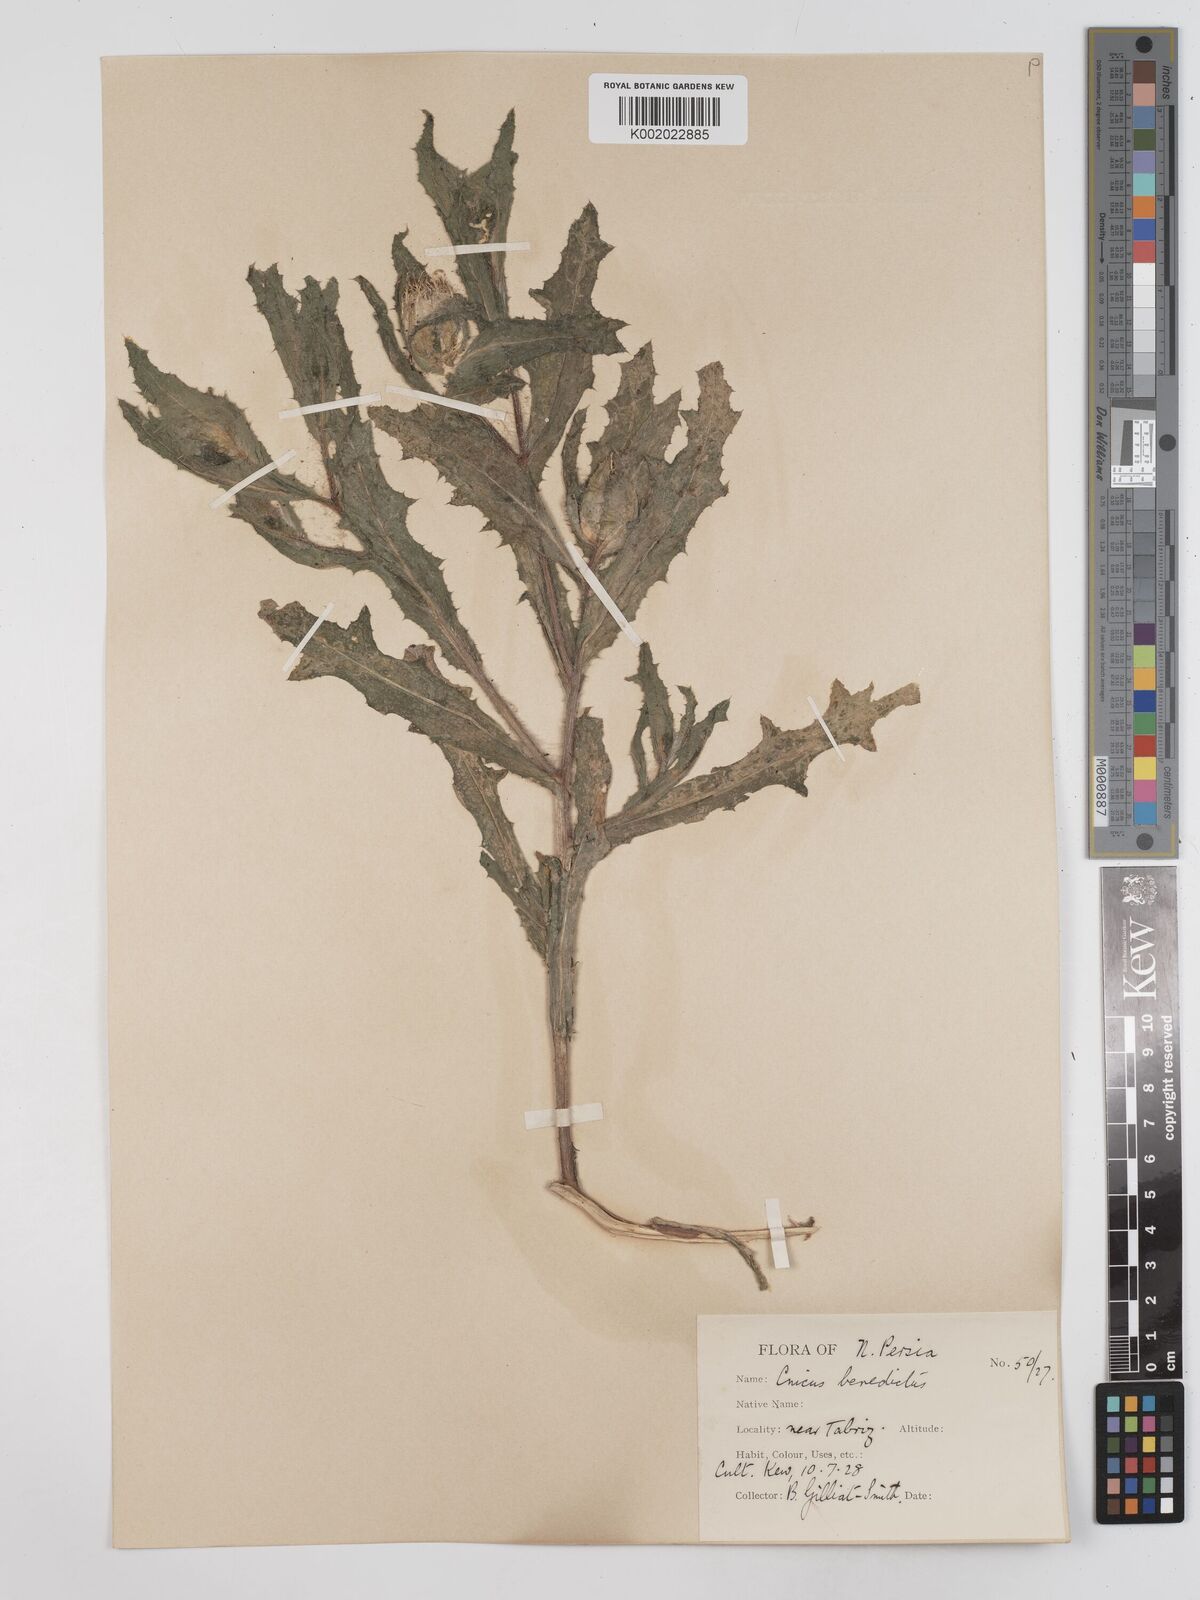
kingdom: Plantae
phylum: Tracheophyta
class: Magnoliopsida
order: Asterales
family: Asteraceae
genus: Centaurea
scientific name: Centaurea benedicta
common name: Blessed thistle
